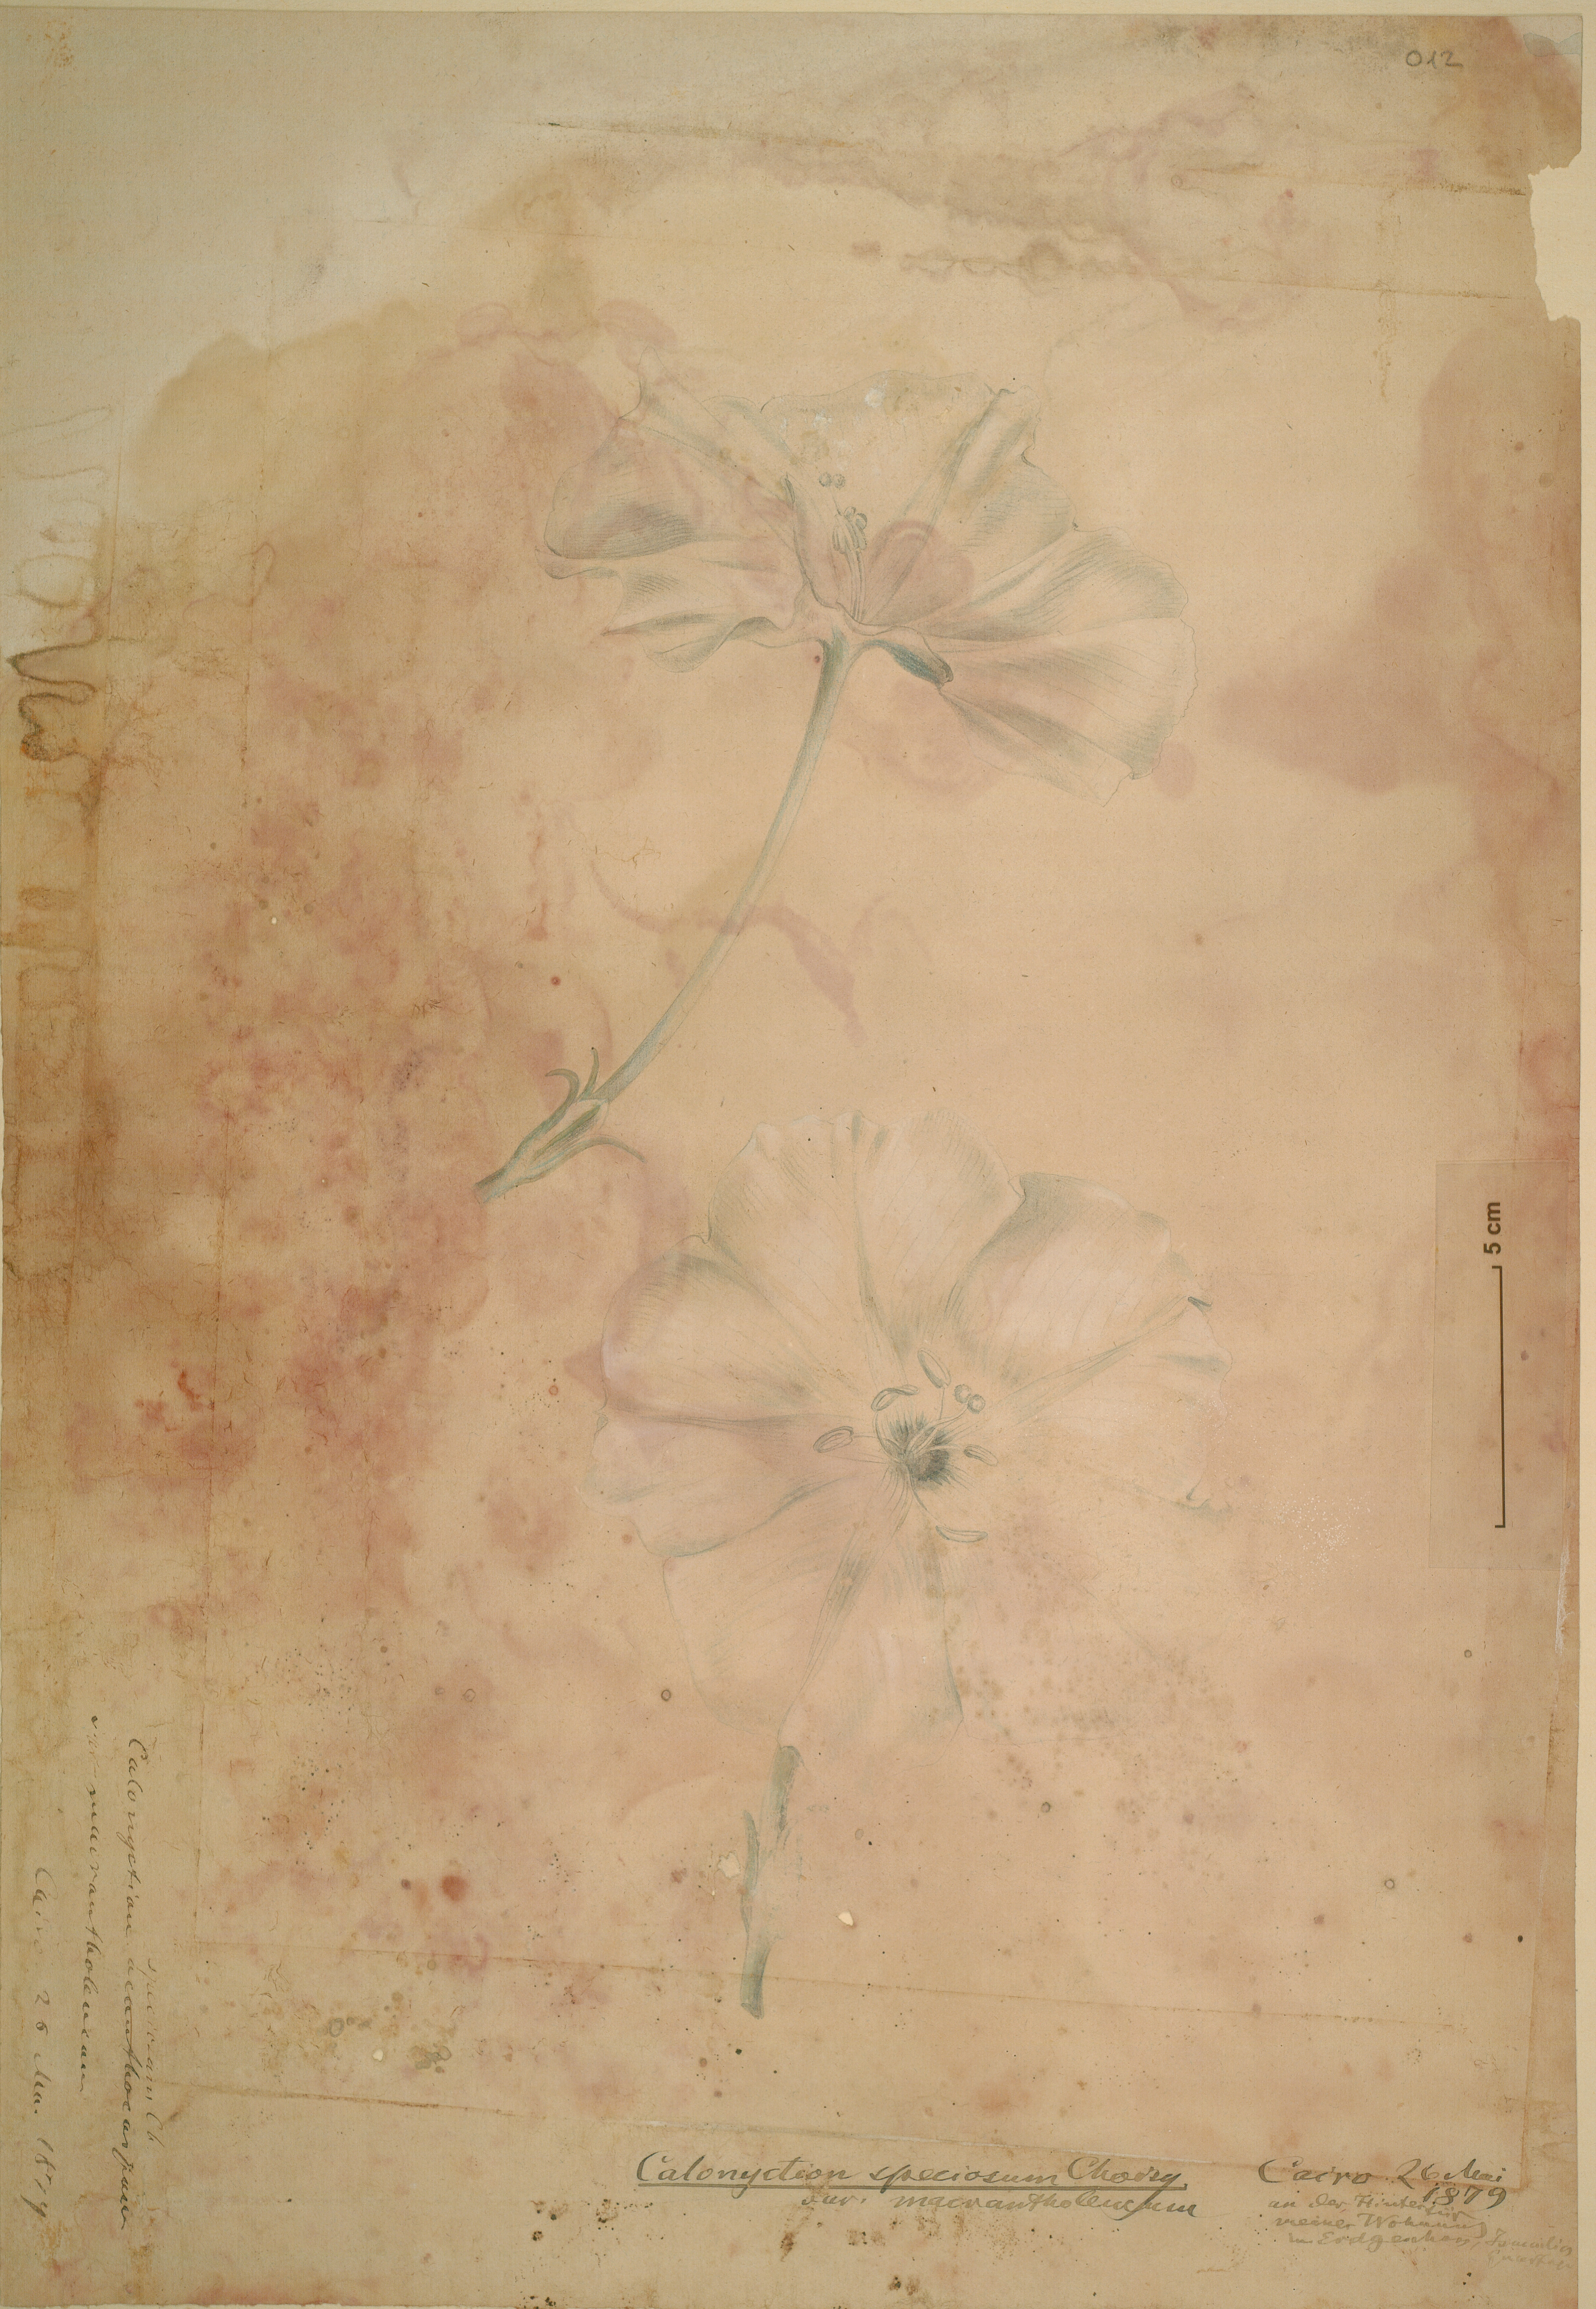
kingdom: Plantae
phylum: Tracheophyta
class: Magnoliopsida
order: Solanales
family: Convolvulaceae
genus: Ipomoea
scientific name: Ipomoea alba
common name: Moonflower
